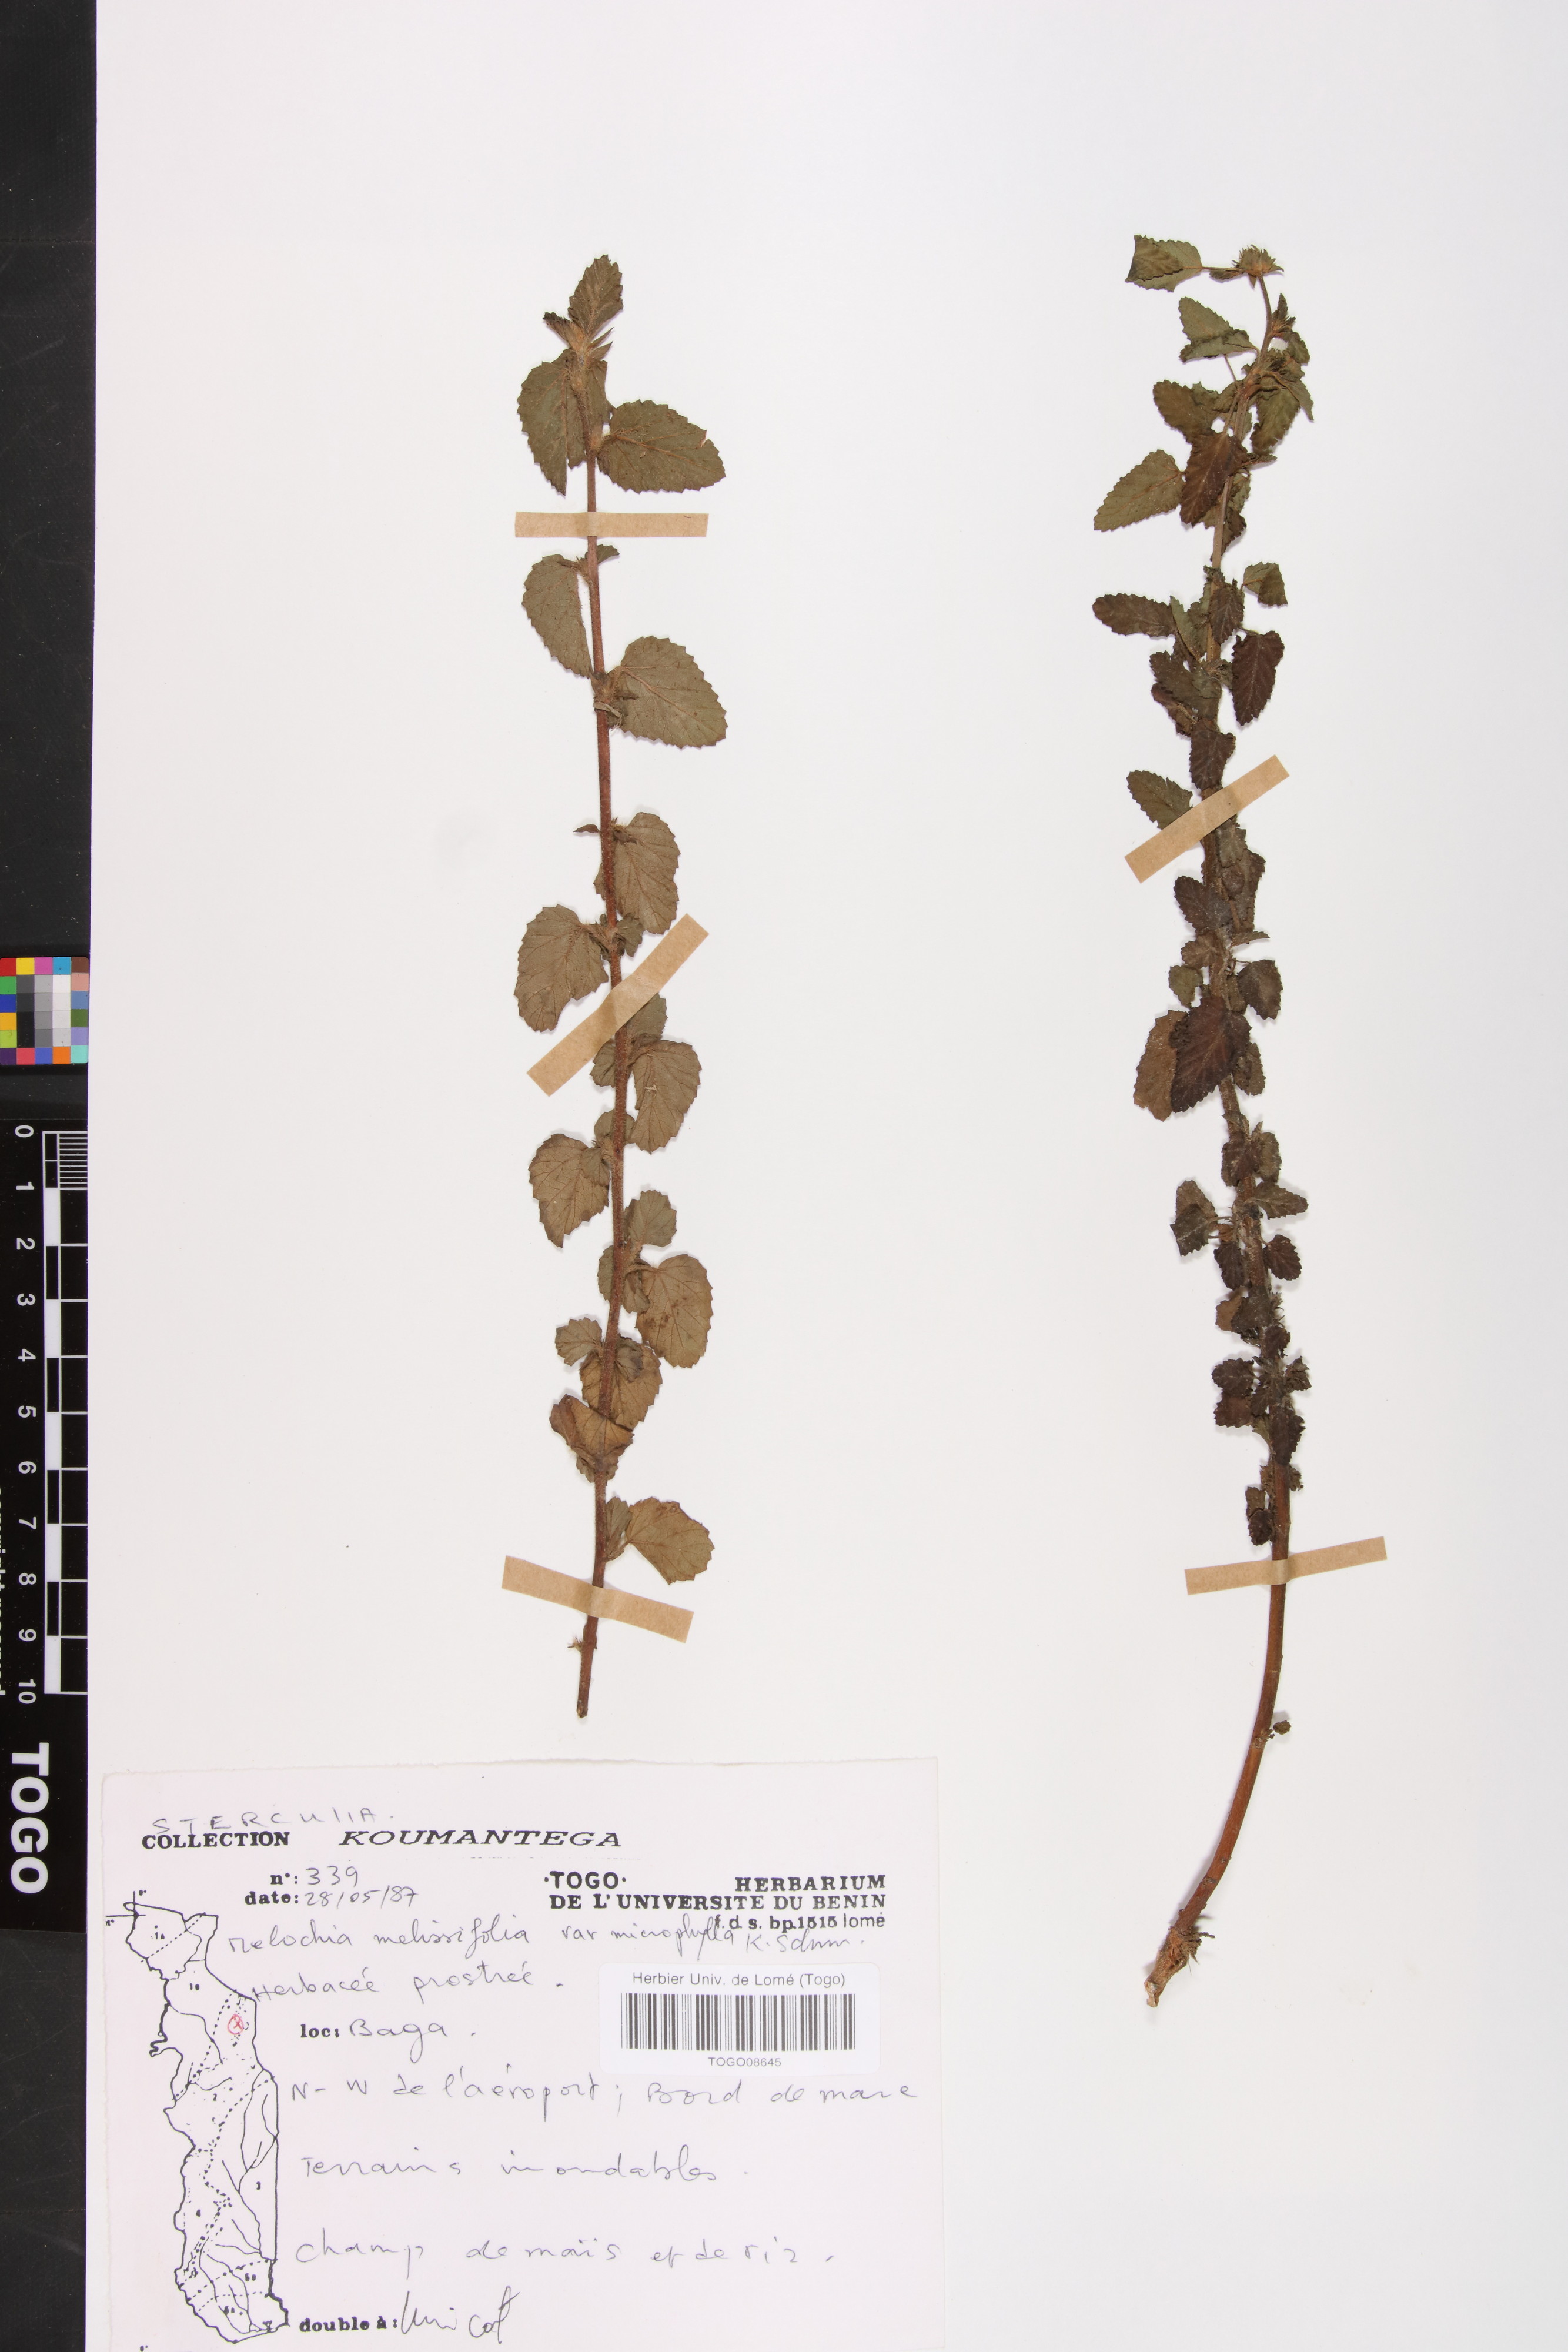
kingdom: Plantae
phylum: Tracheophyta
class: Magnoliopsida
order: Malvales
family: Malvaceae
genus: Melochia
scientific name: Melochia melissifolia
